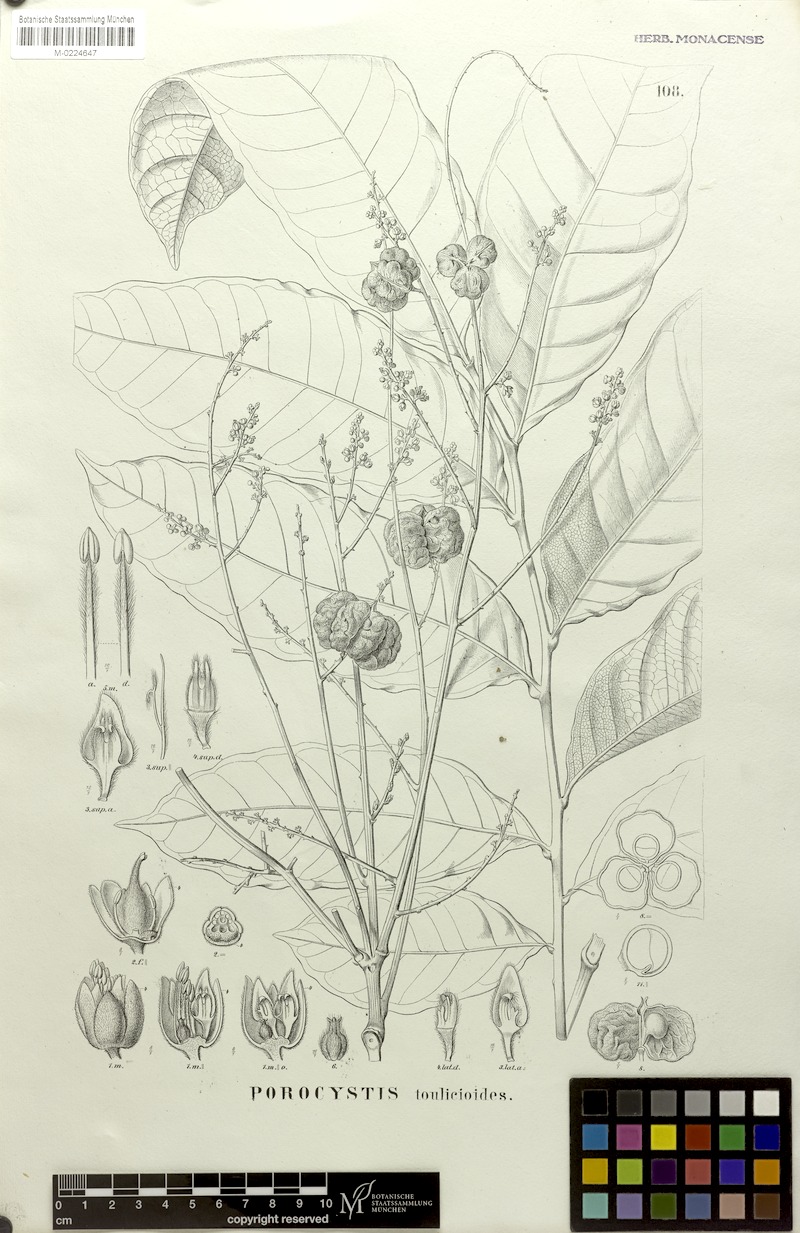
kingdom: Plantae
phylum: Tracheophyta
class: Magnoliopsida
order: Sapindales
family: Sapindaceae
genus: Porocystis
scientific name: Porocystis toulicioides
